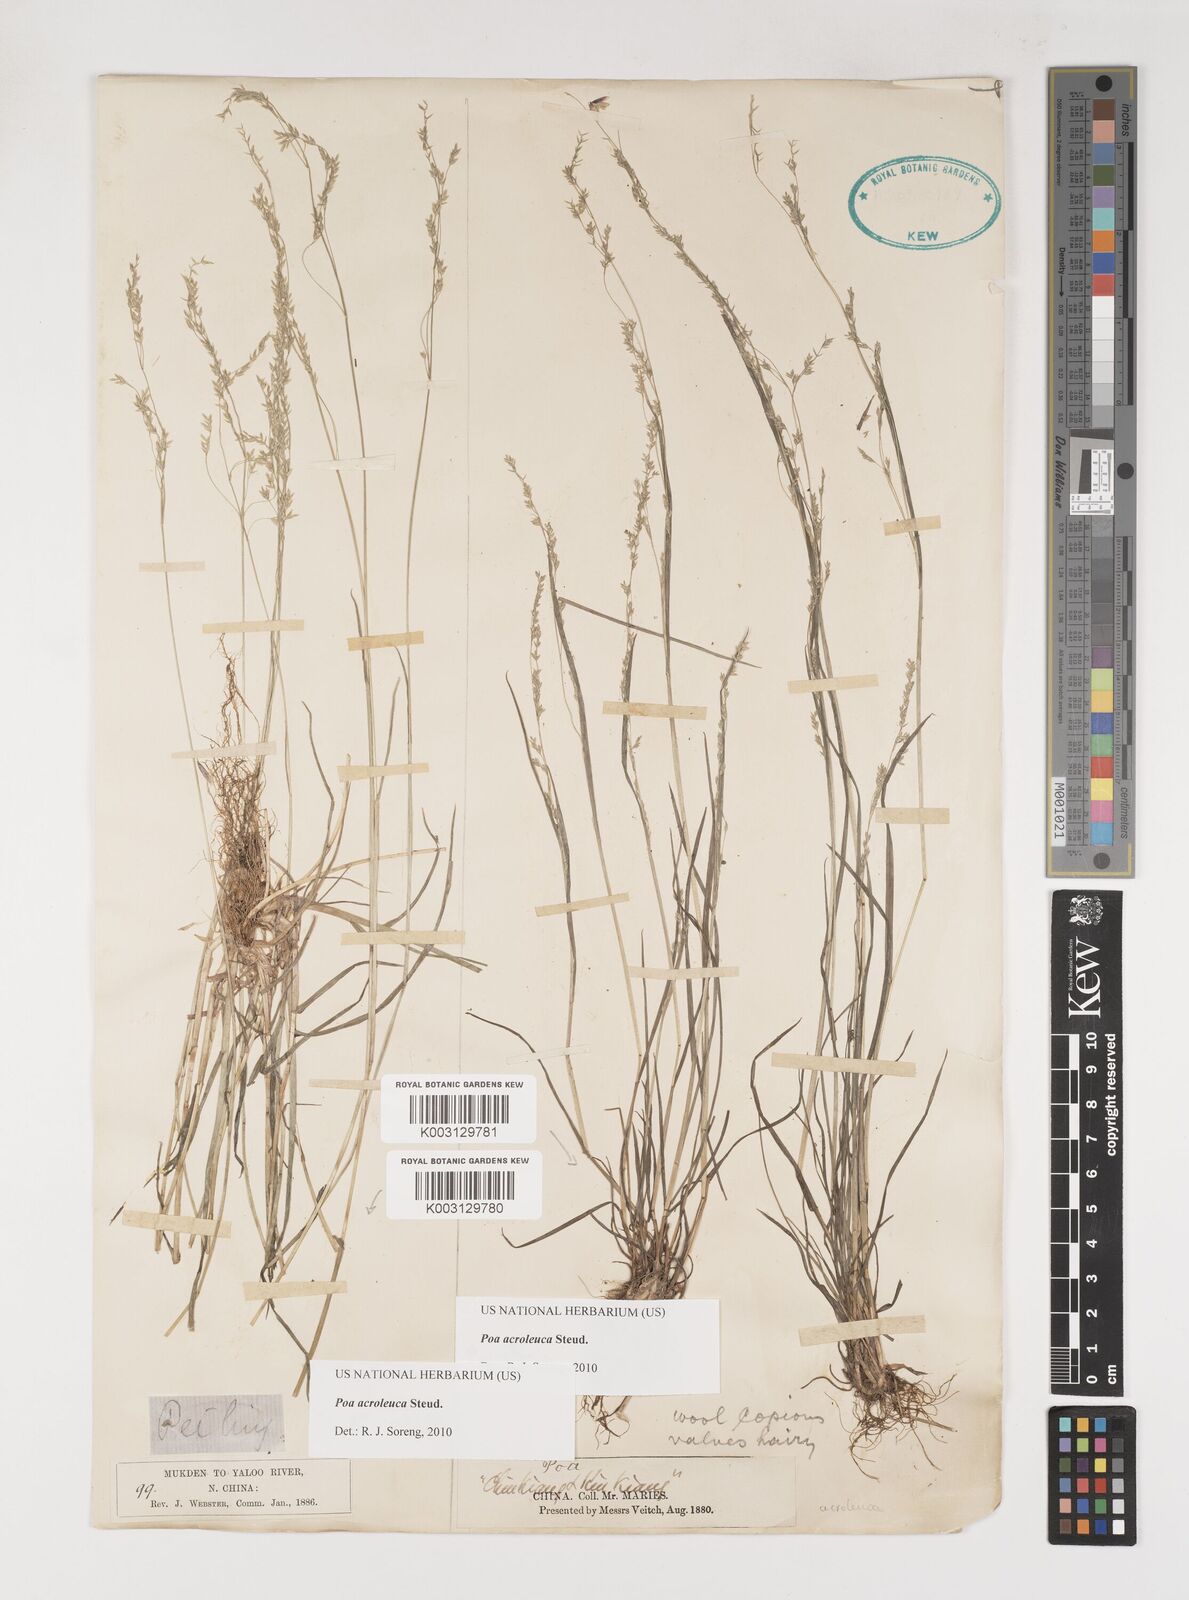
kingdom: Plantae
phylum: Tracheophyta
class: Liliopsida
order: Poales
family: Poaceae
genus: Poa
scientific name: Poa acroleuca
